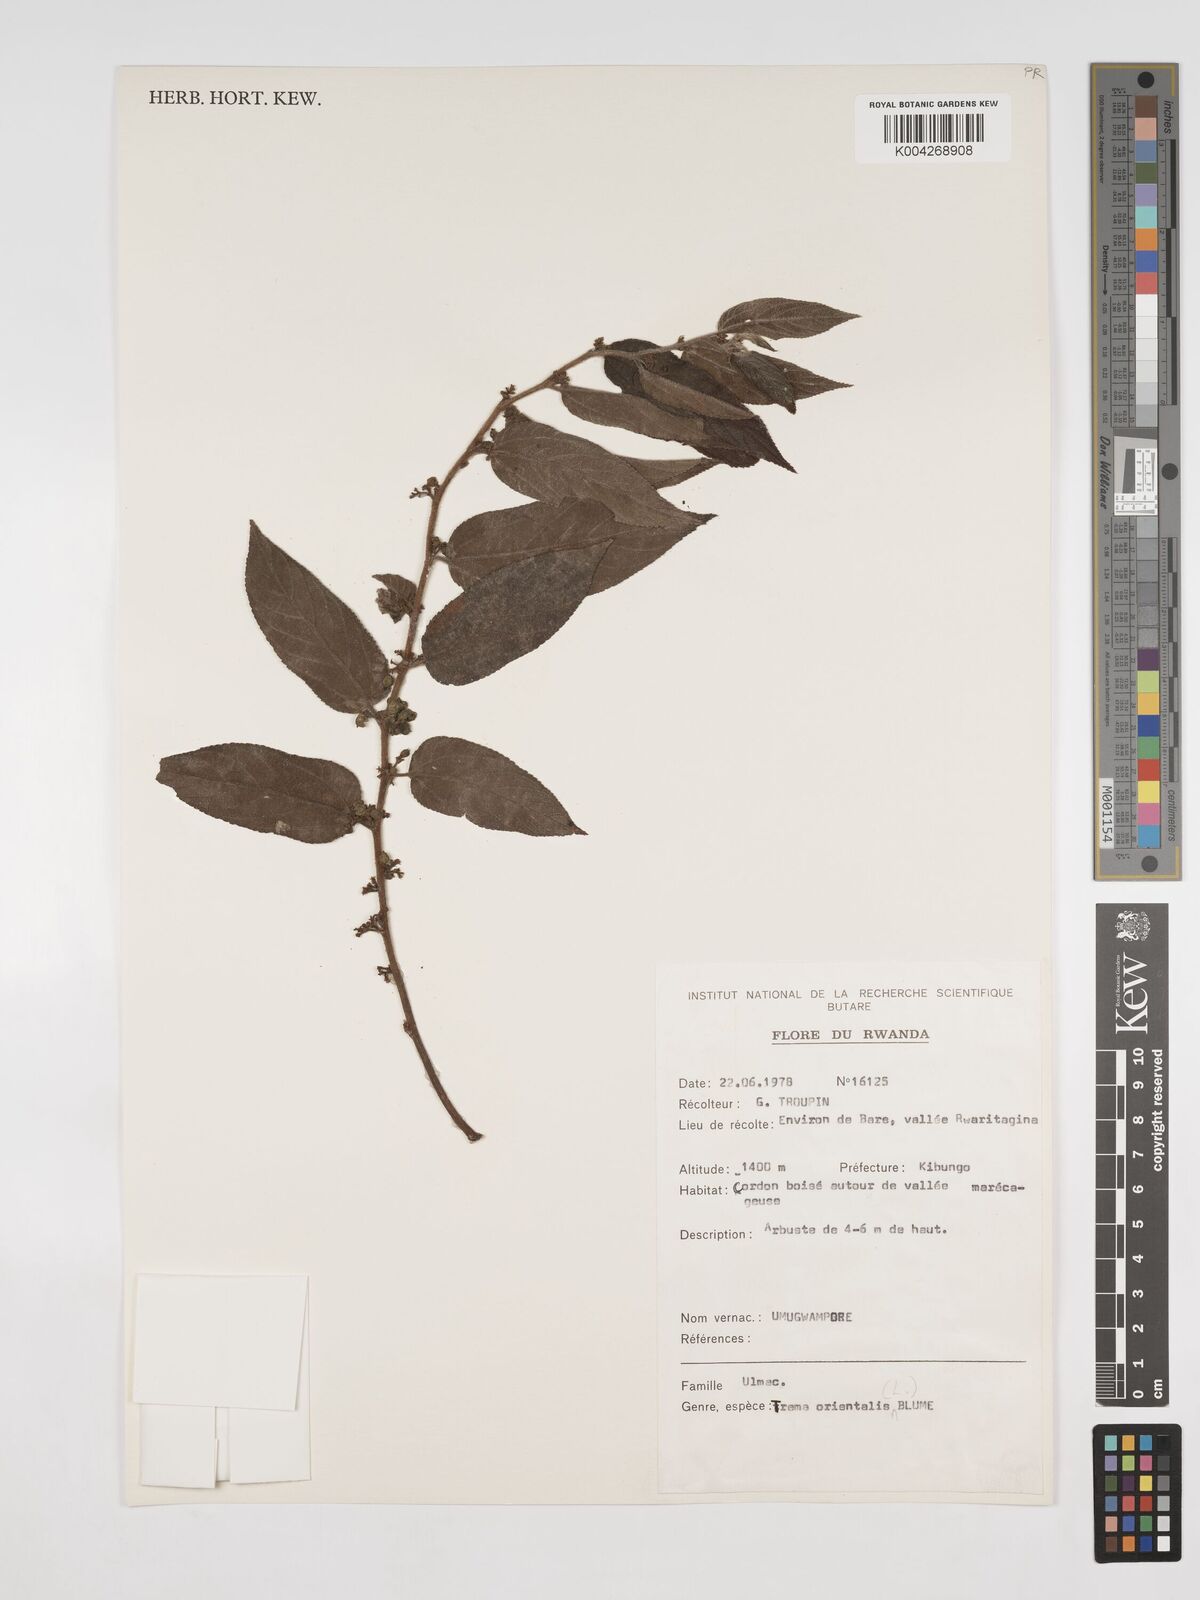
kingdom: Plantae
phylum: Tracheophyta
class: Magnoliopsida
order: Rosales
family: Cannabaceae
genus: Trema
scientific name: Trema orientale
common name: Indian charcoal tree
